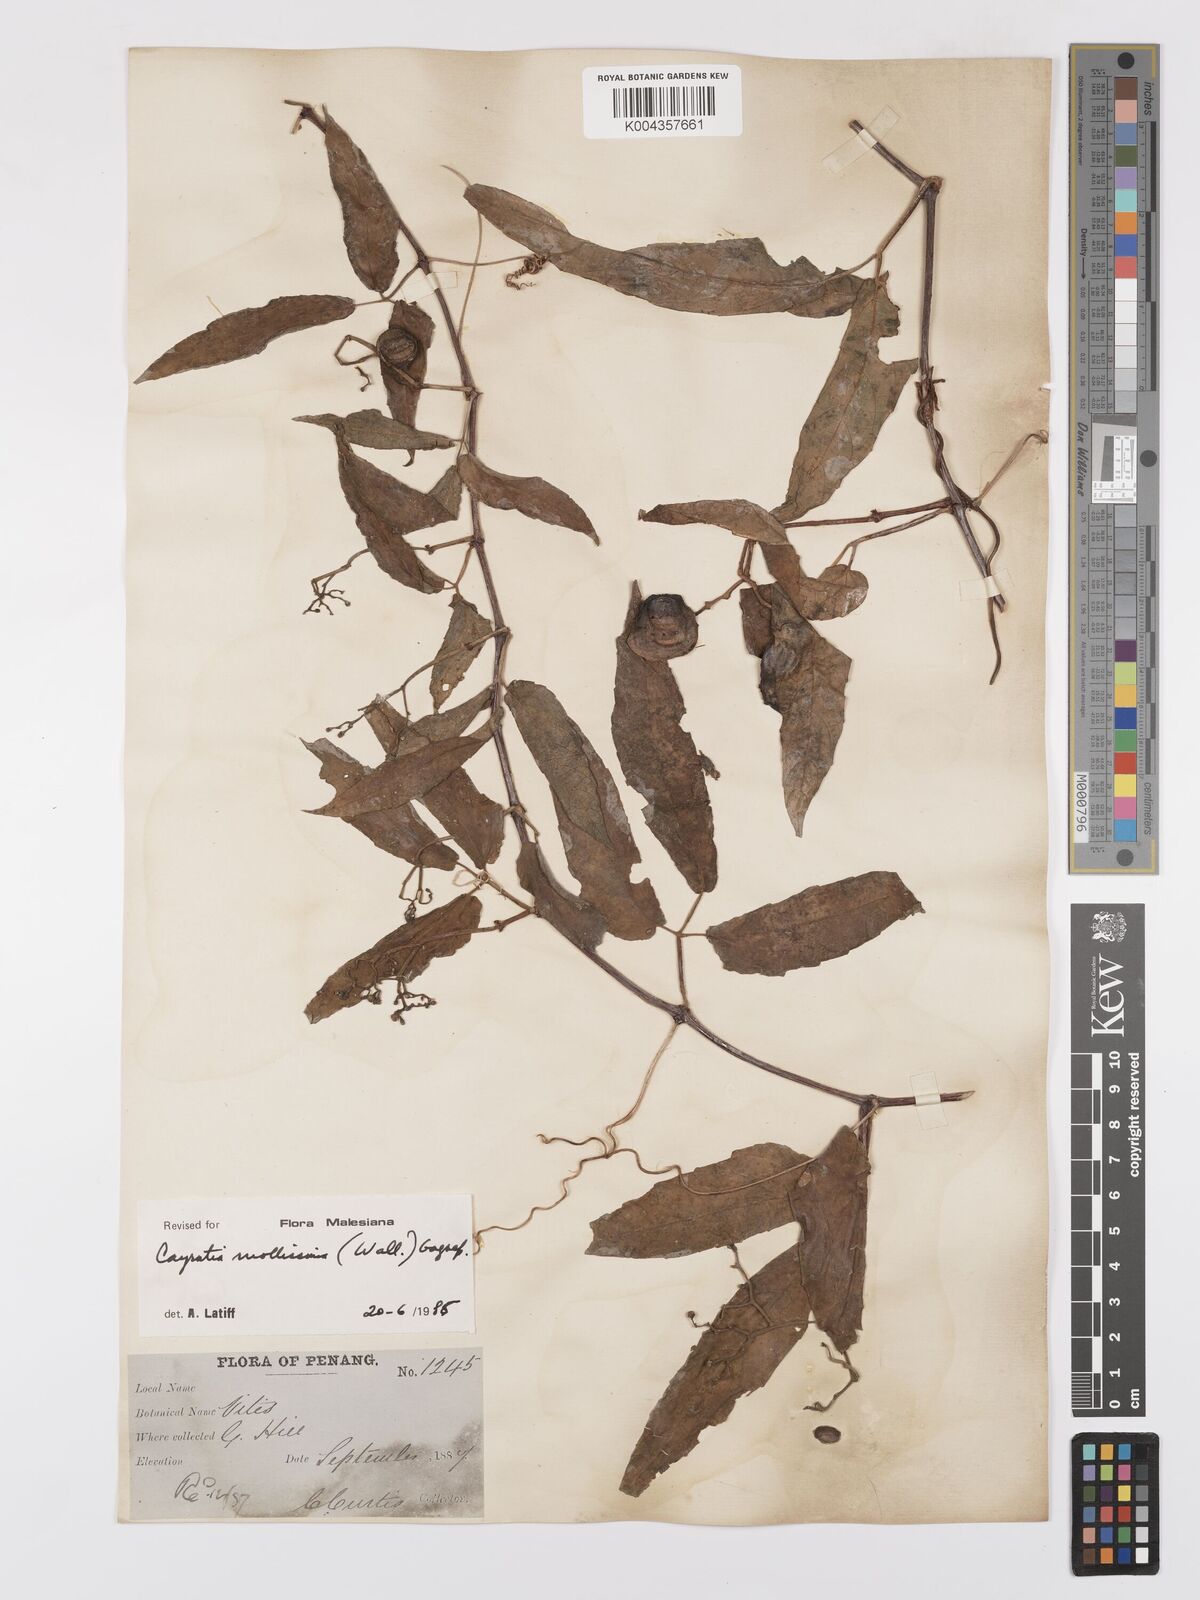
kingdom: Plantae
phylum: Tracheophyta
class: Magnoliopsida
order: Vitales
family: Vitaceae
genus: Cayratia
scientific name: Cayratia mollissima
